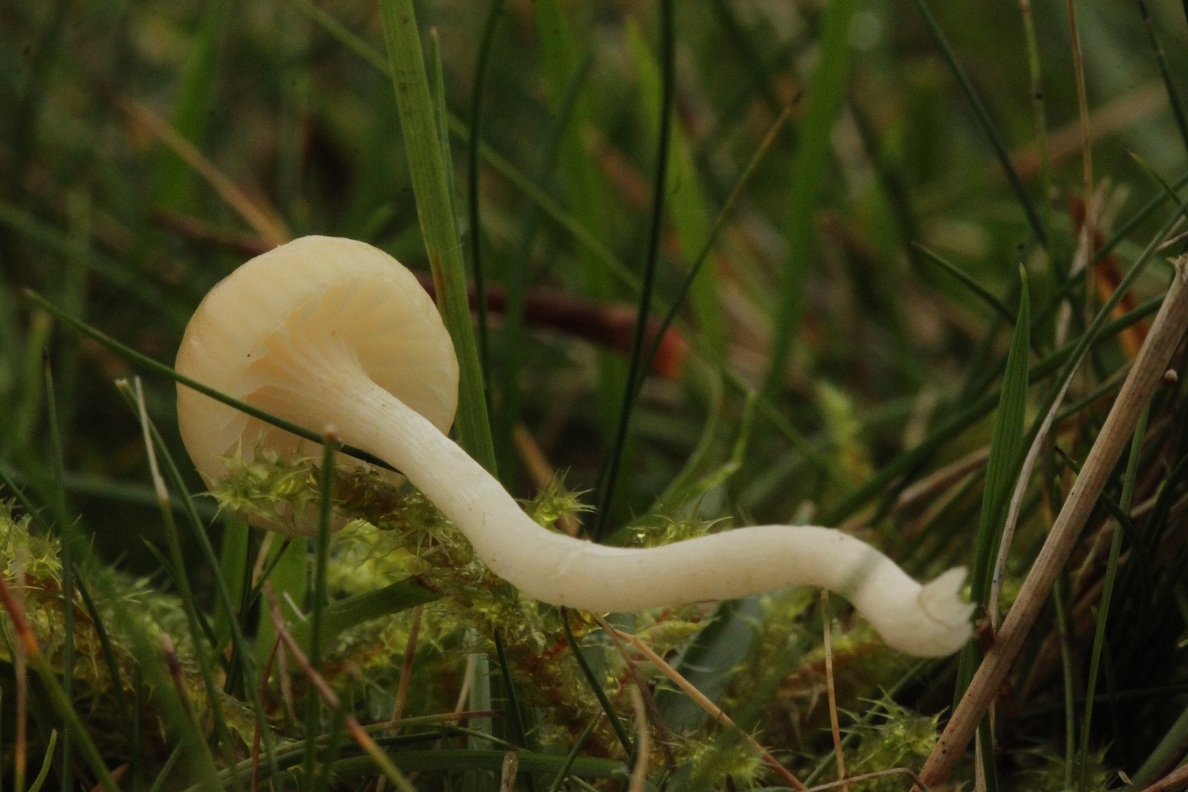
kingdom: Fungi
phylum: Basidiomycota
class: Agaricomycetes
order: Agaricales
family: Hygrophoraceae
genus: Cuphophyllus
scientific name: Cuphophyllus russocoriaceus
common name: ruslæder-vokshat
